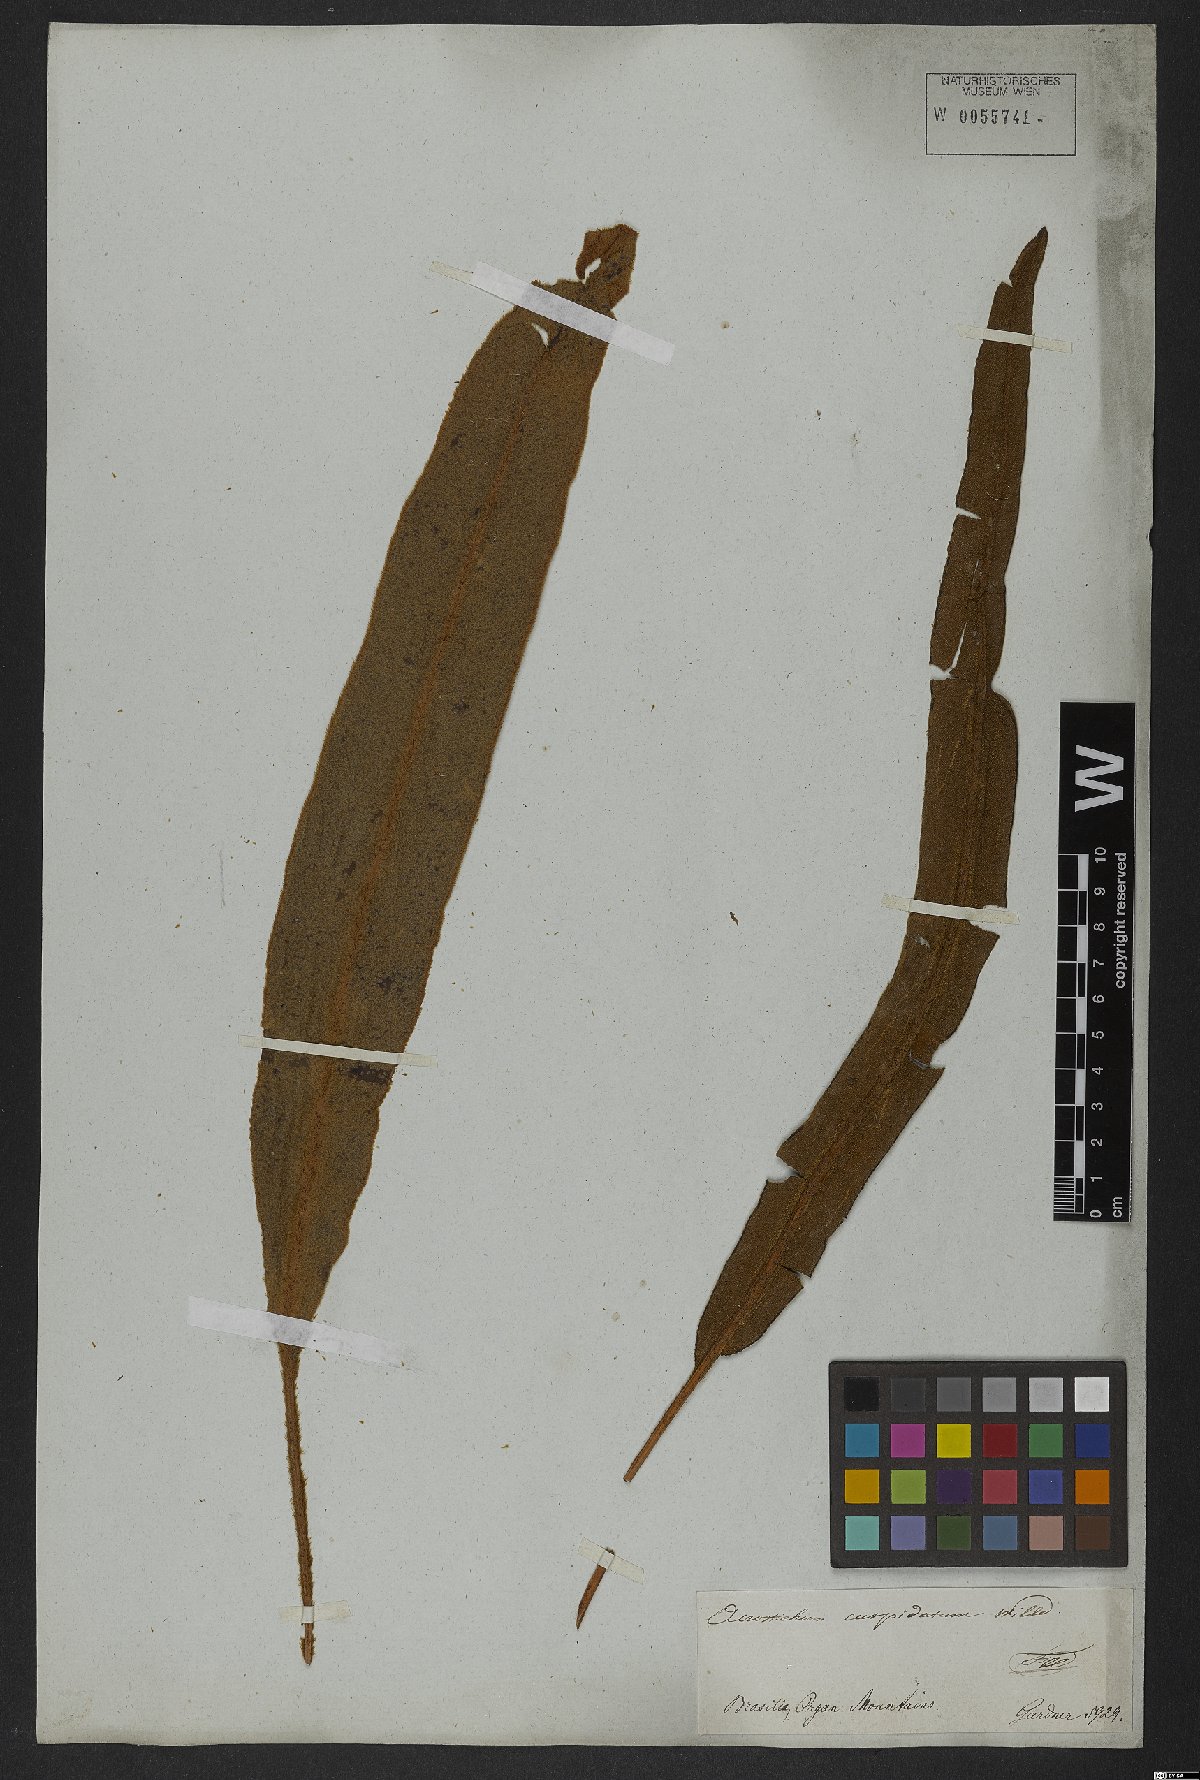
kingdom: Plantae
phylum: Tracheophyta
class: Polypodiopsida
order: Polypodiales
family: Dryopteridaceae
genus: Elaphoglossum
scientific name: Elaphoglossum cuspidatum
